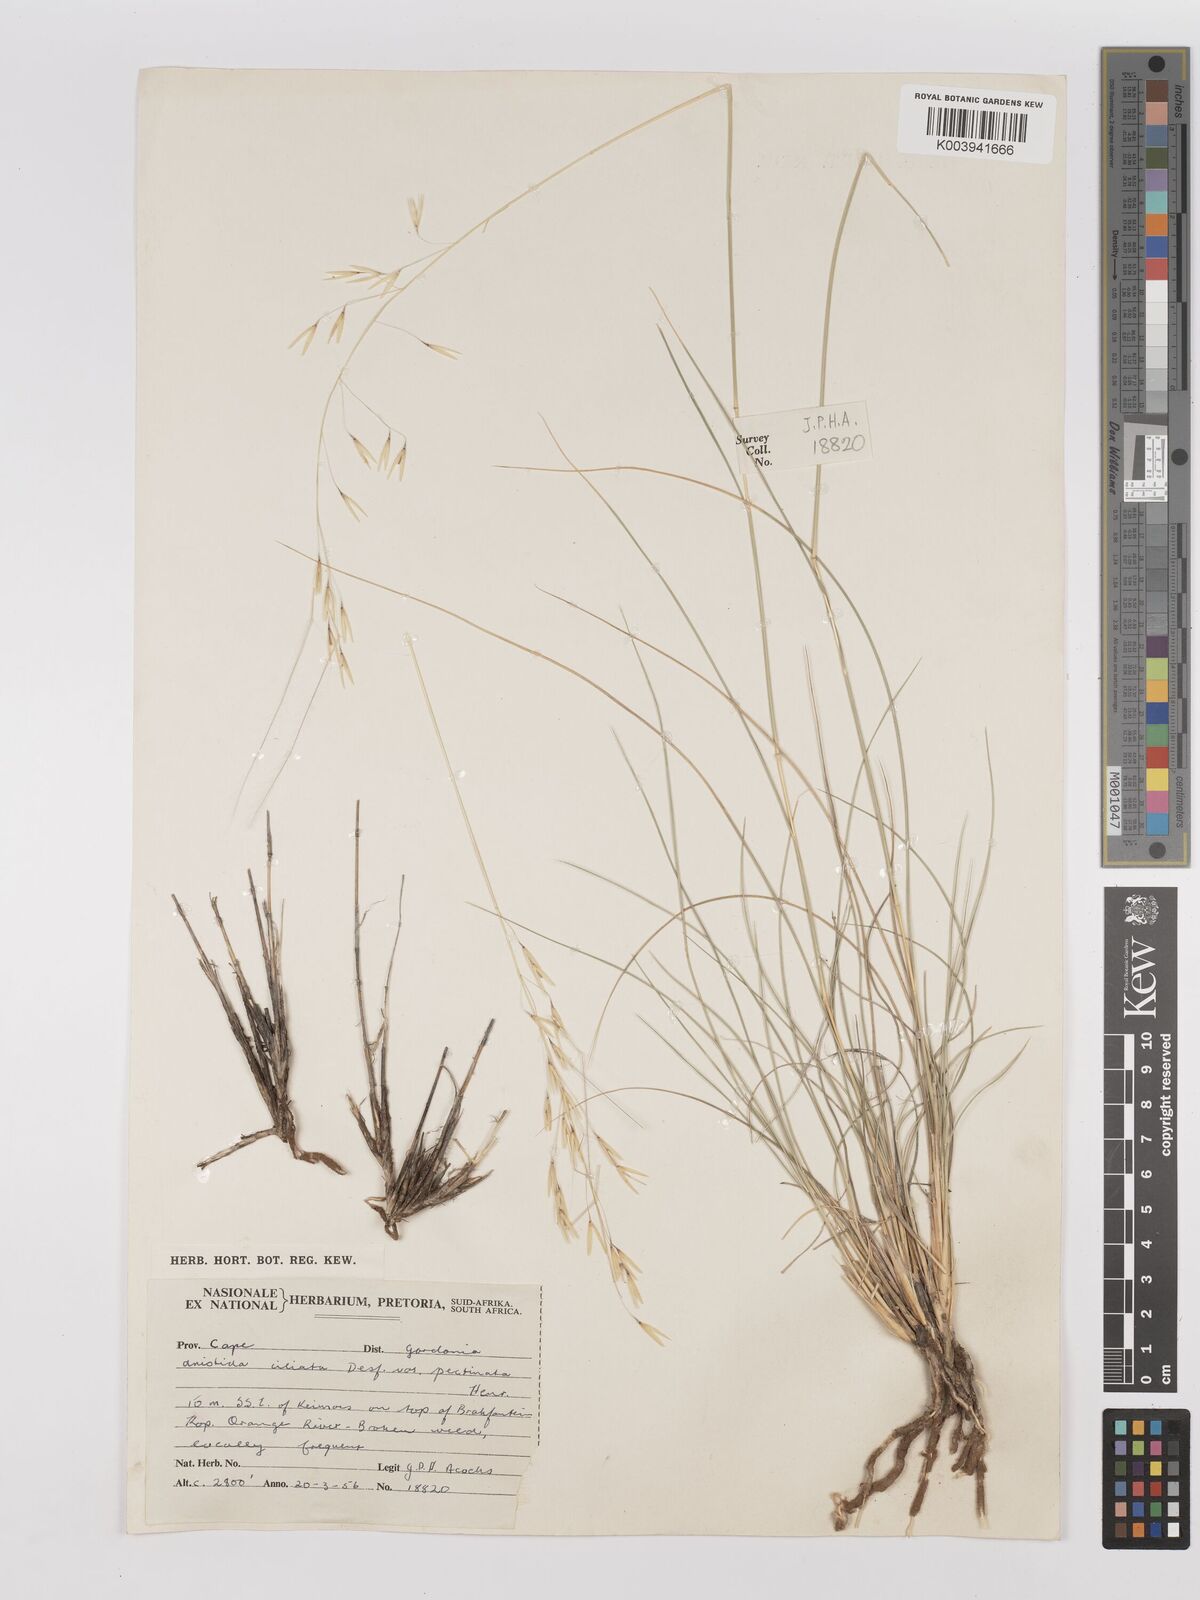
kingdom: Plantae
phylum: Tracheophyta
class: Liliopsida
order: Poales
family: Poaceae
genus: Stipagrostis
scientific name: Stipagrostis ciliata
